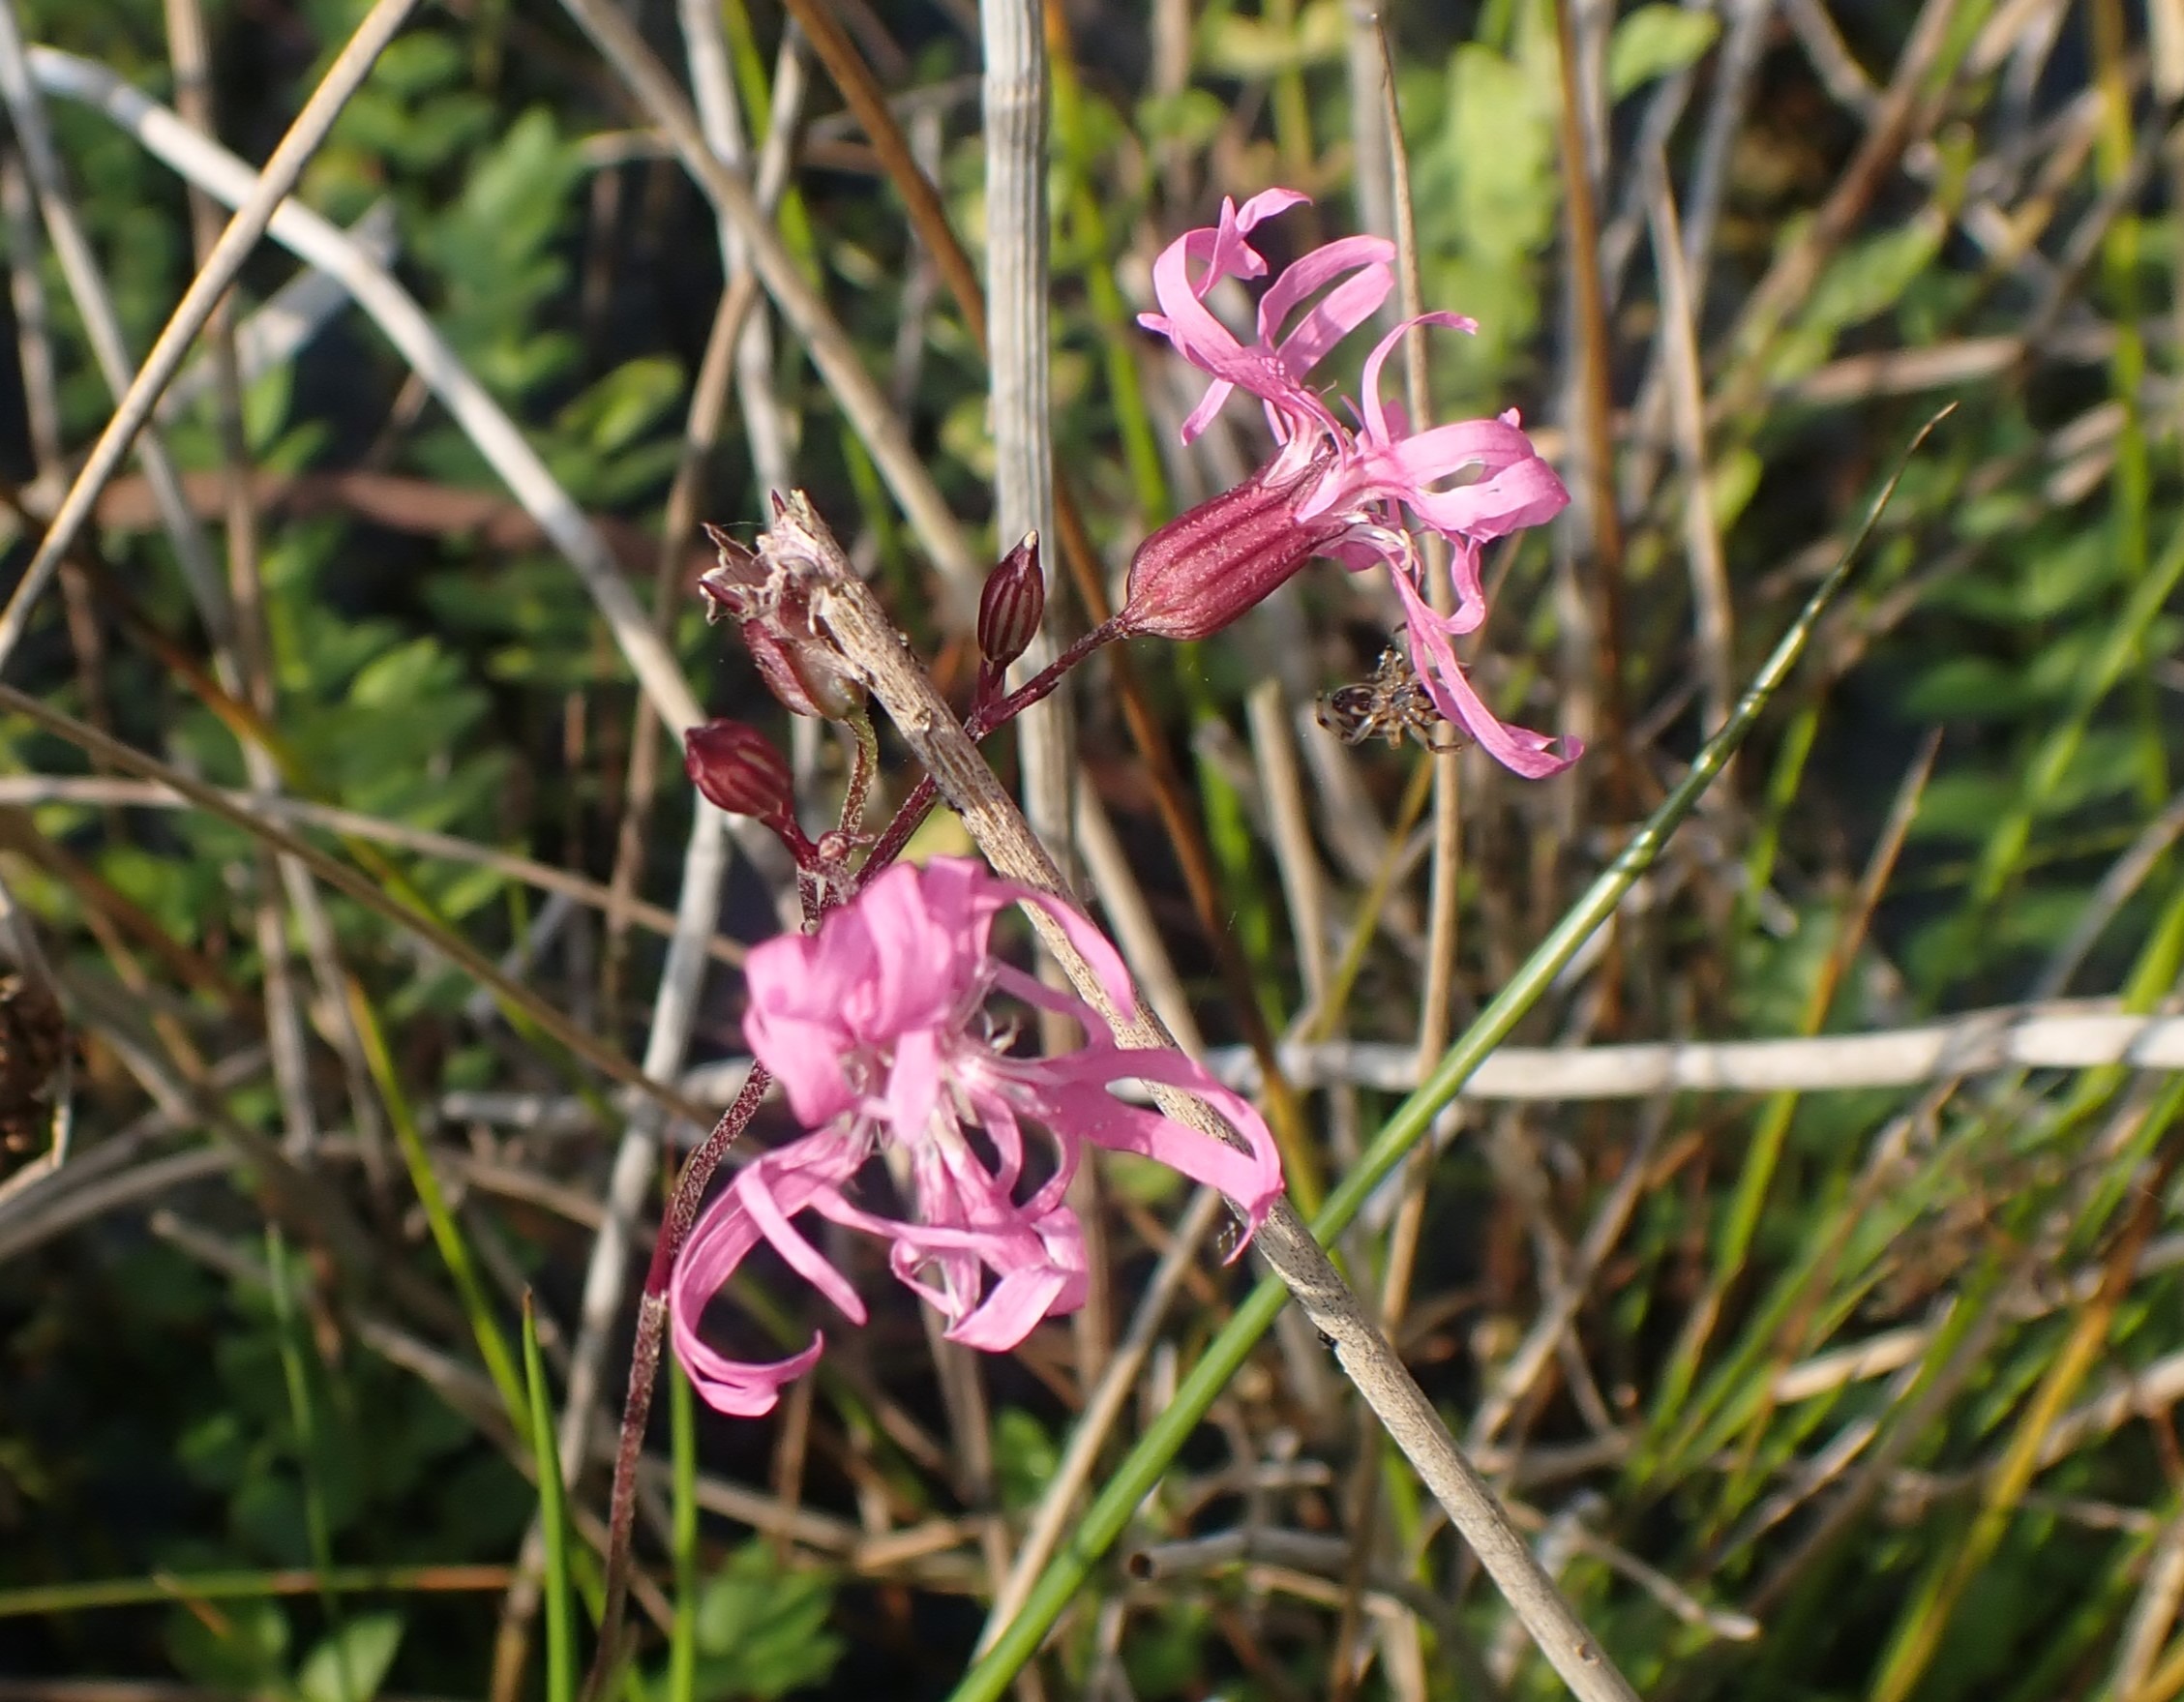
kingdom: Plantae
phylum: Tracheophyta
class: Magnoliopsida
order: Caryophyllales
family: Caryophyllaceae
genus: Silene
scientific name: Silene flos-cuculi
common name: Trævlekrone
